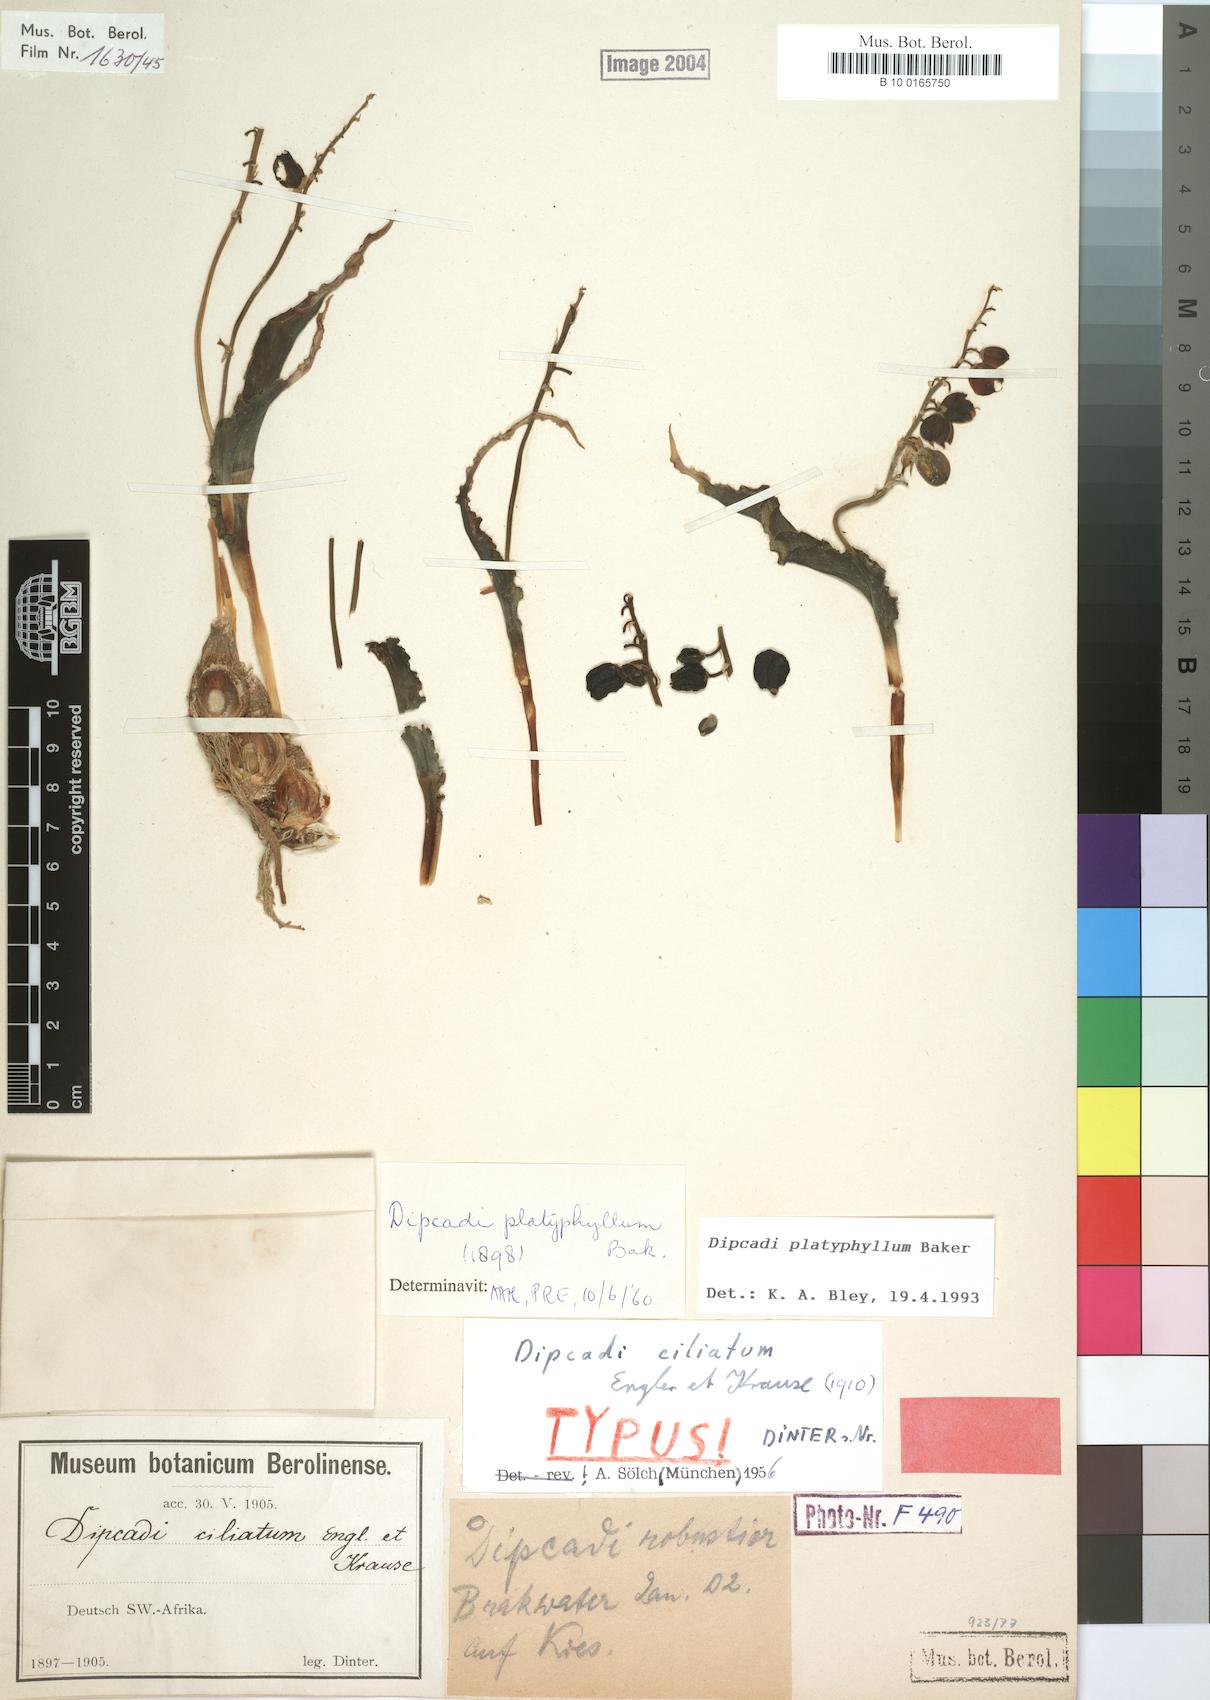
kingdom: Plantae
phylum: Tracheophyta
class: Liliopsida
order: Asparagales
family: Asparagaceae
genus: Dipcadi
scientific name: Dipcadi platyphyllum
